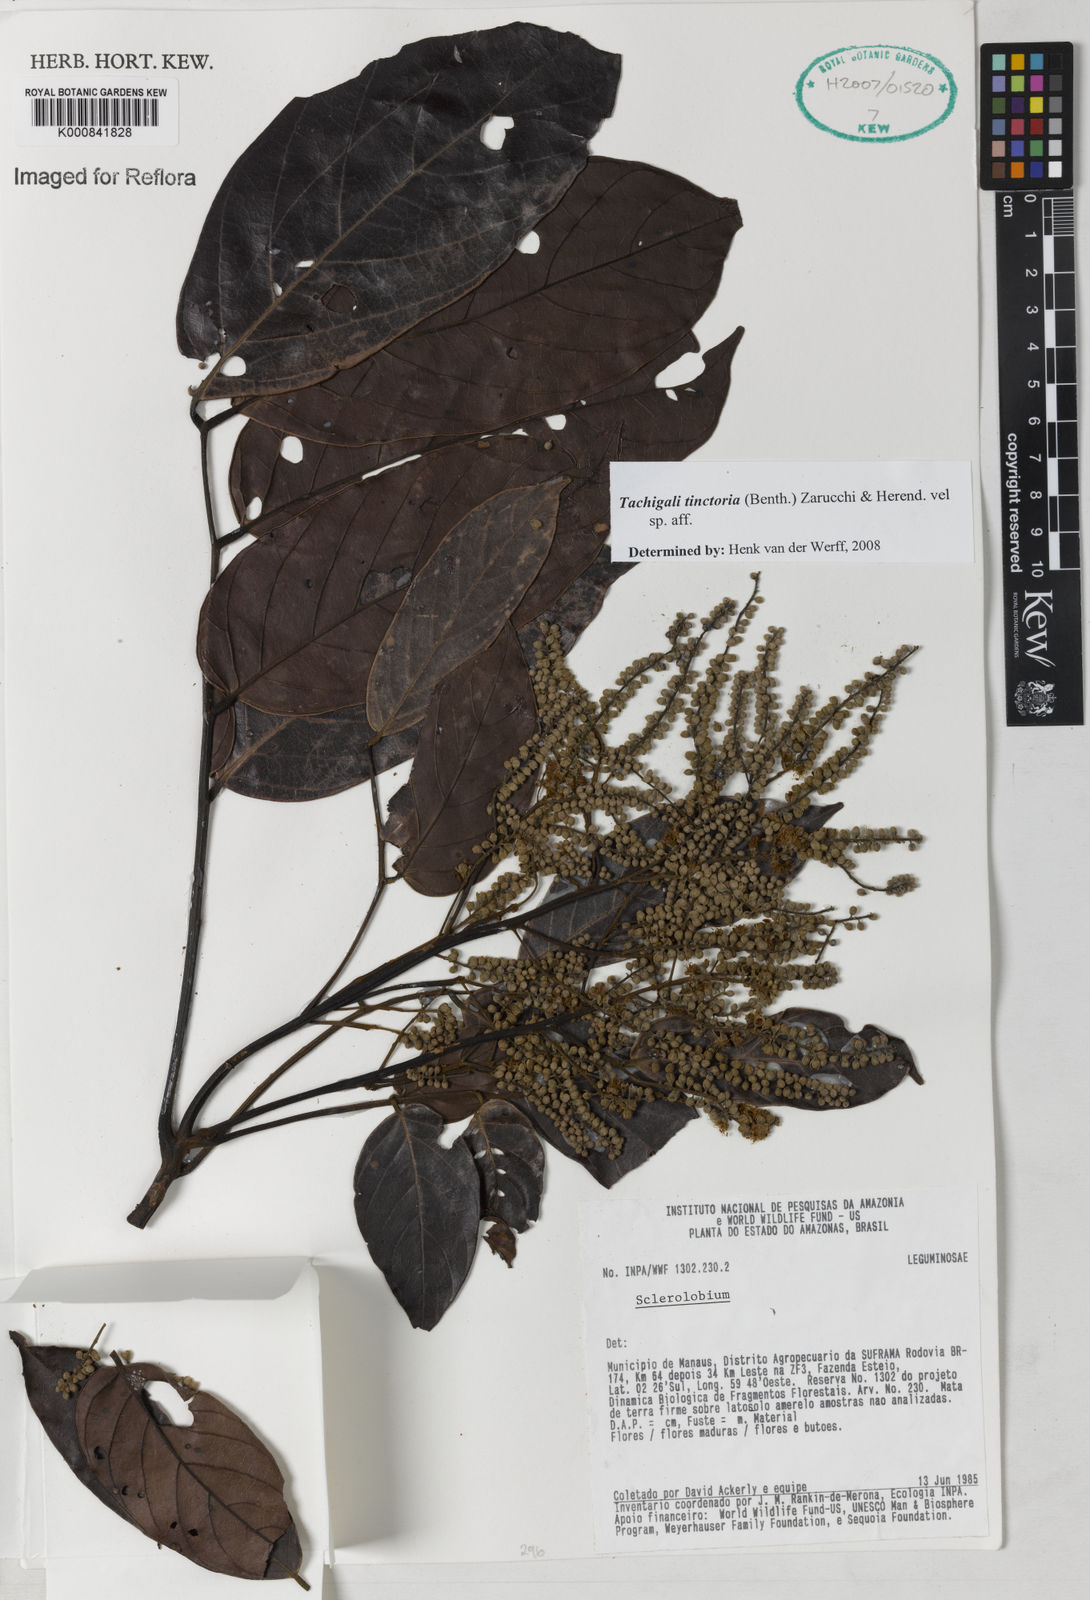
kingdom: Plantae
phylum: Tracheophyta
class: Magnoliopsida
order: Fabales
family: Fabaceae
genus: Tachigali
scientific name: Tachigali tinctoria
